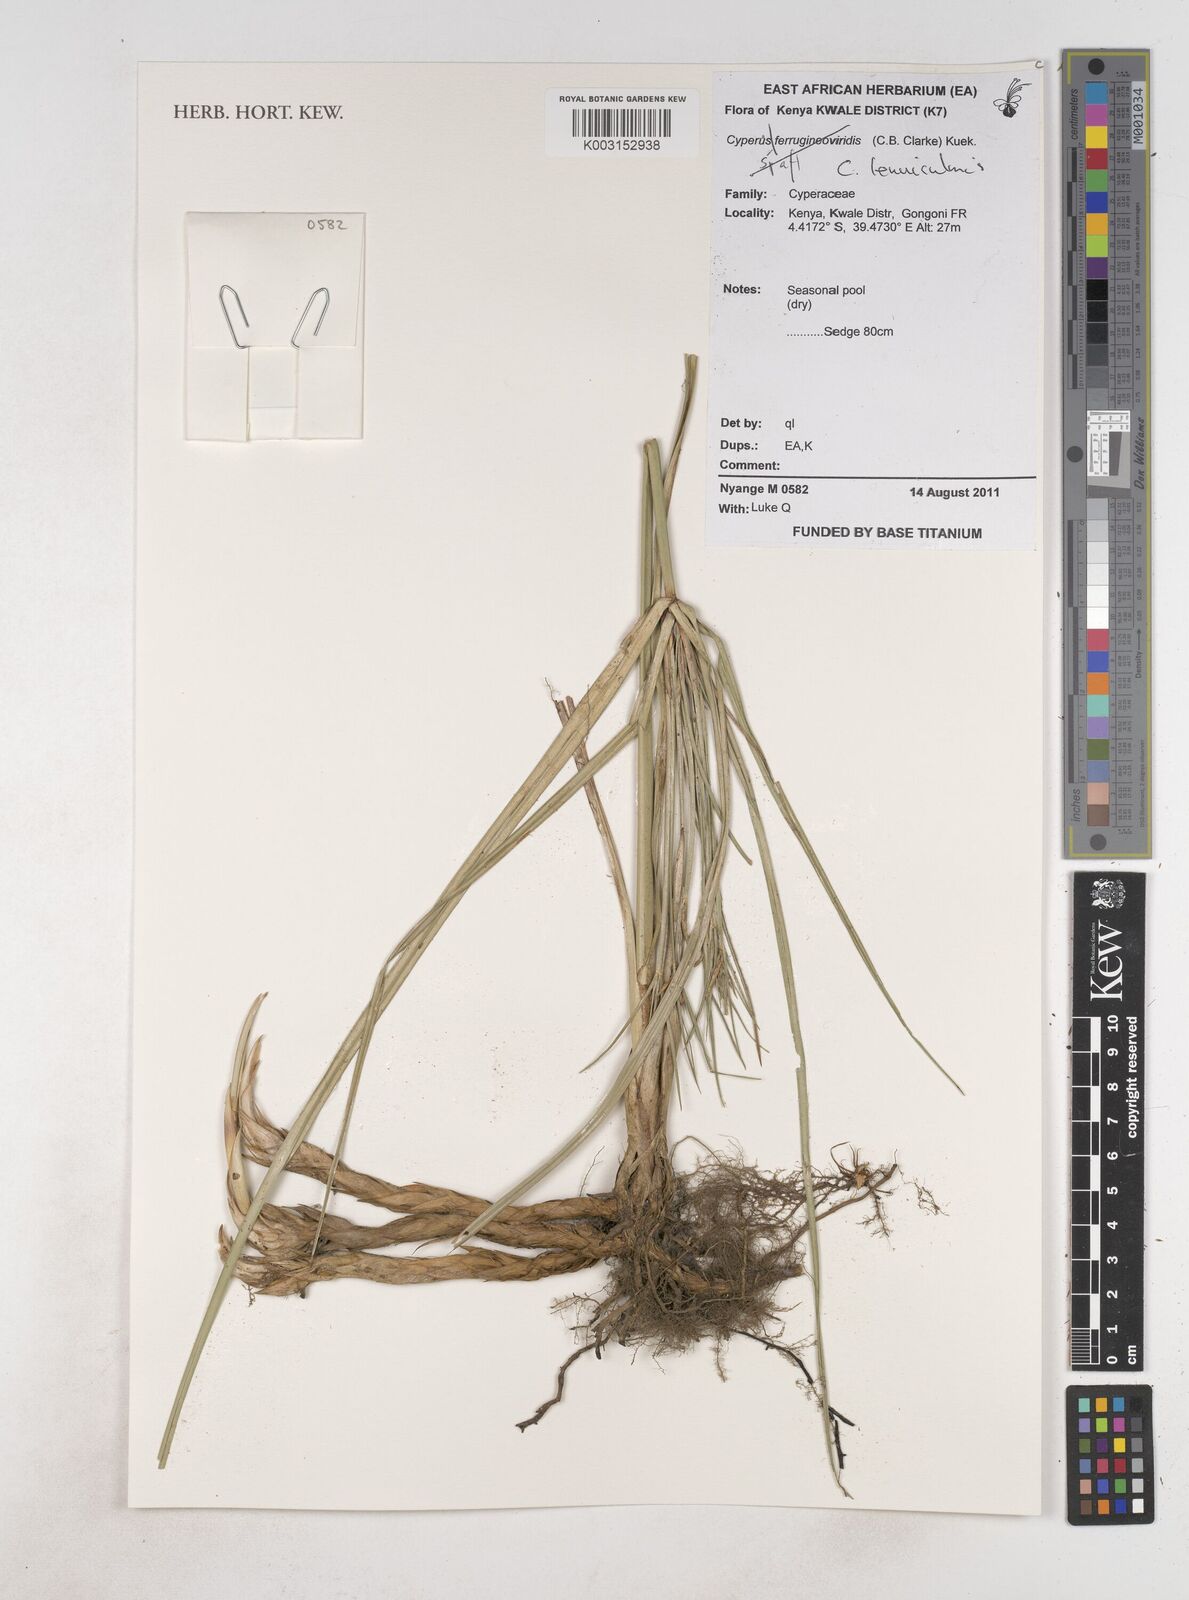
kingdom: Plantae
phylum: Tracheophyta
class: Liliopsida
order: Poales
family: Cyperaceae
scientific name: Cyperaceae
